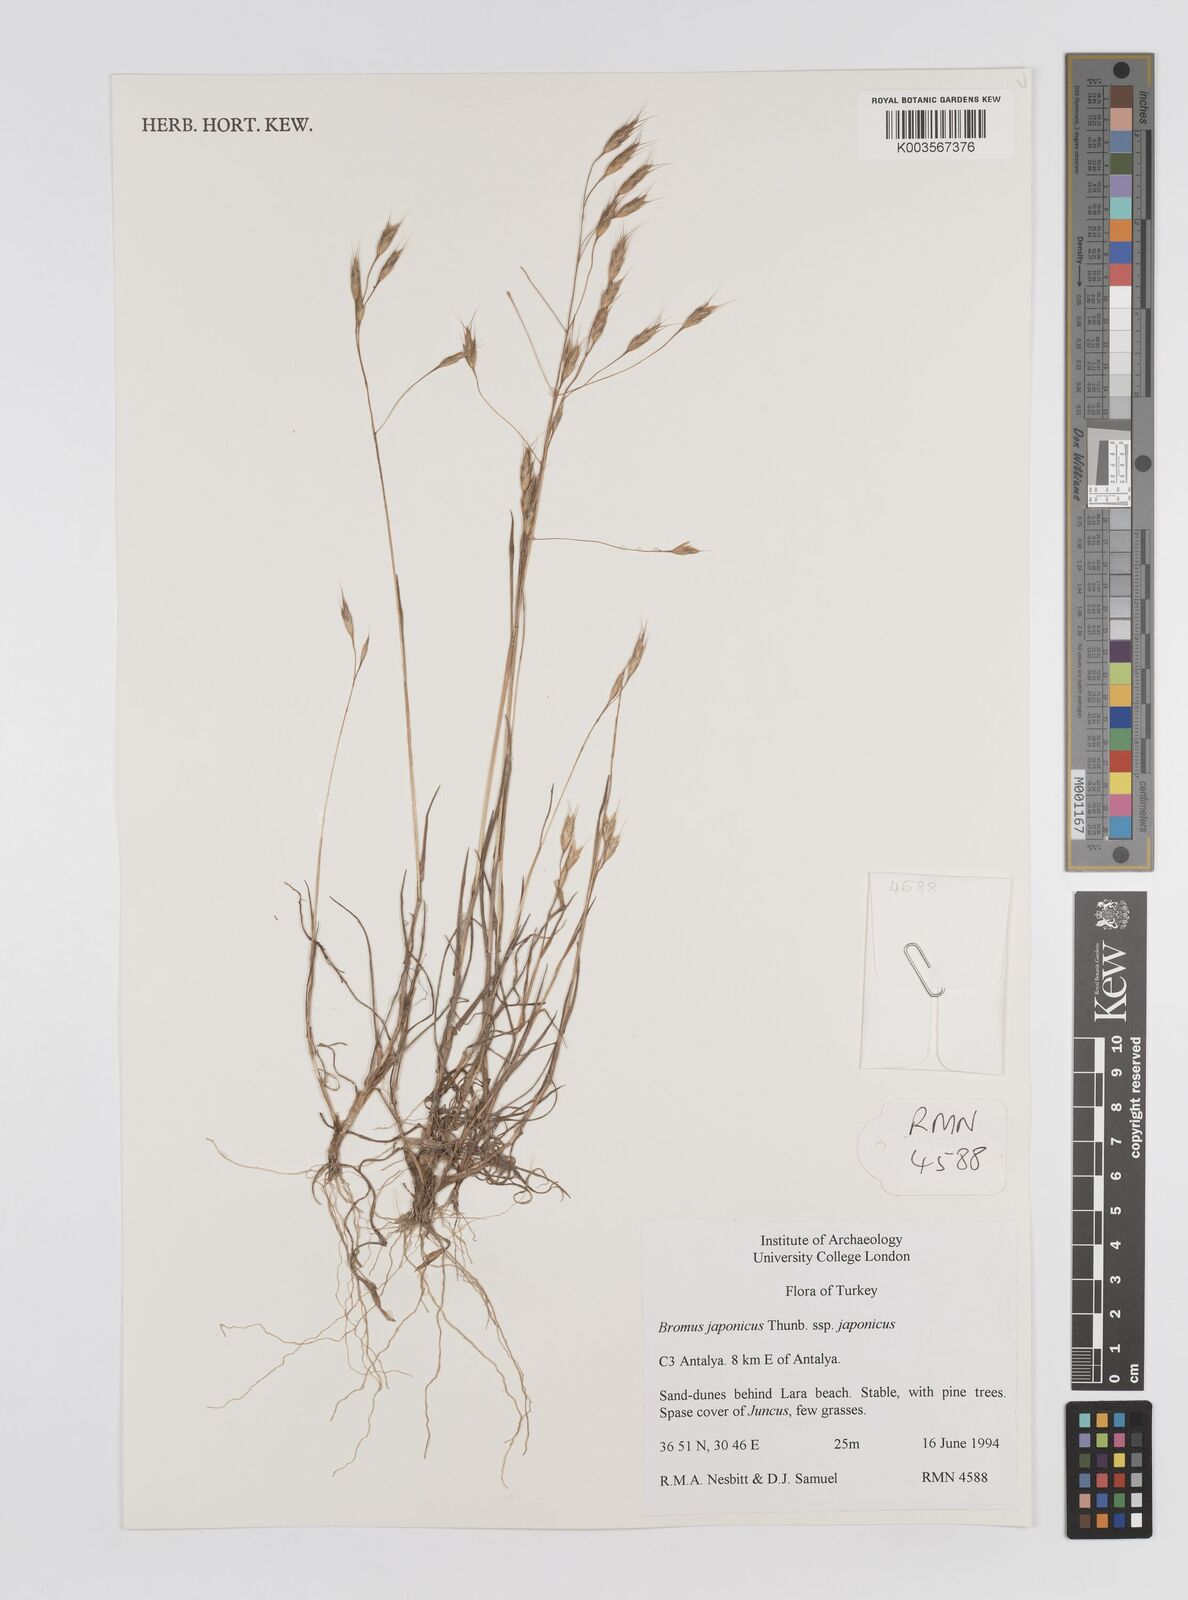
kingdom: Plantae
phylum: Tracheophyta
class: Liliopsida
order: Poales
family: Poaceae
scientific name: Poaceae
